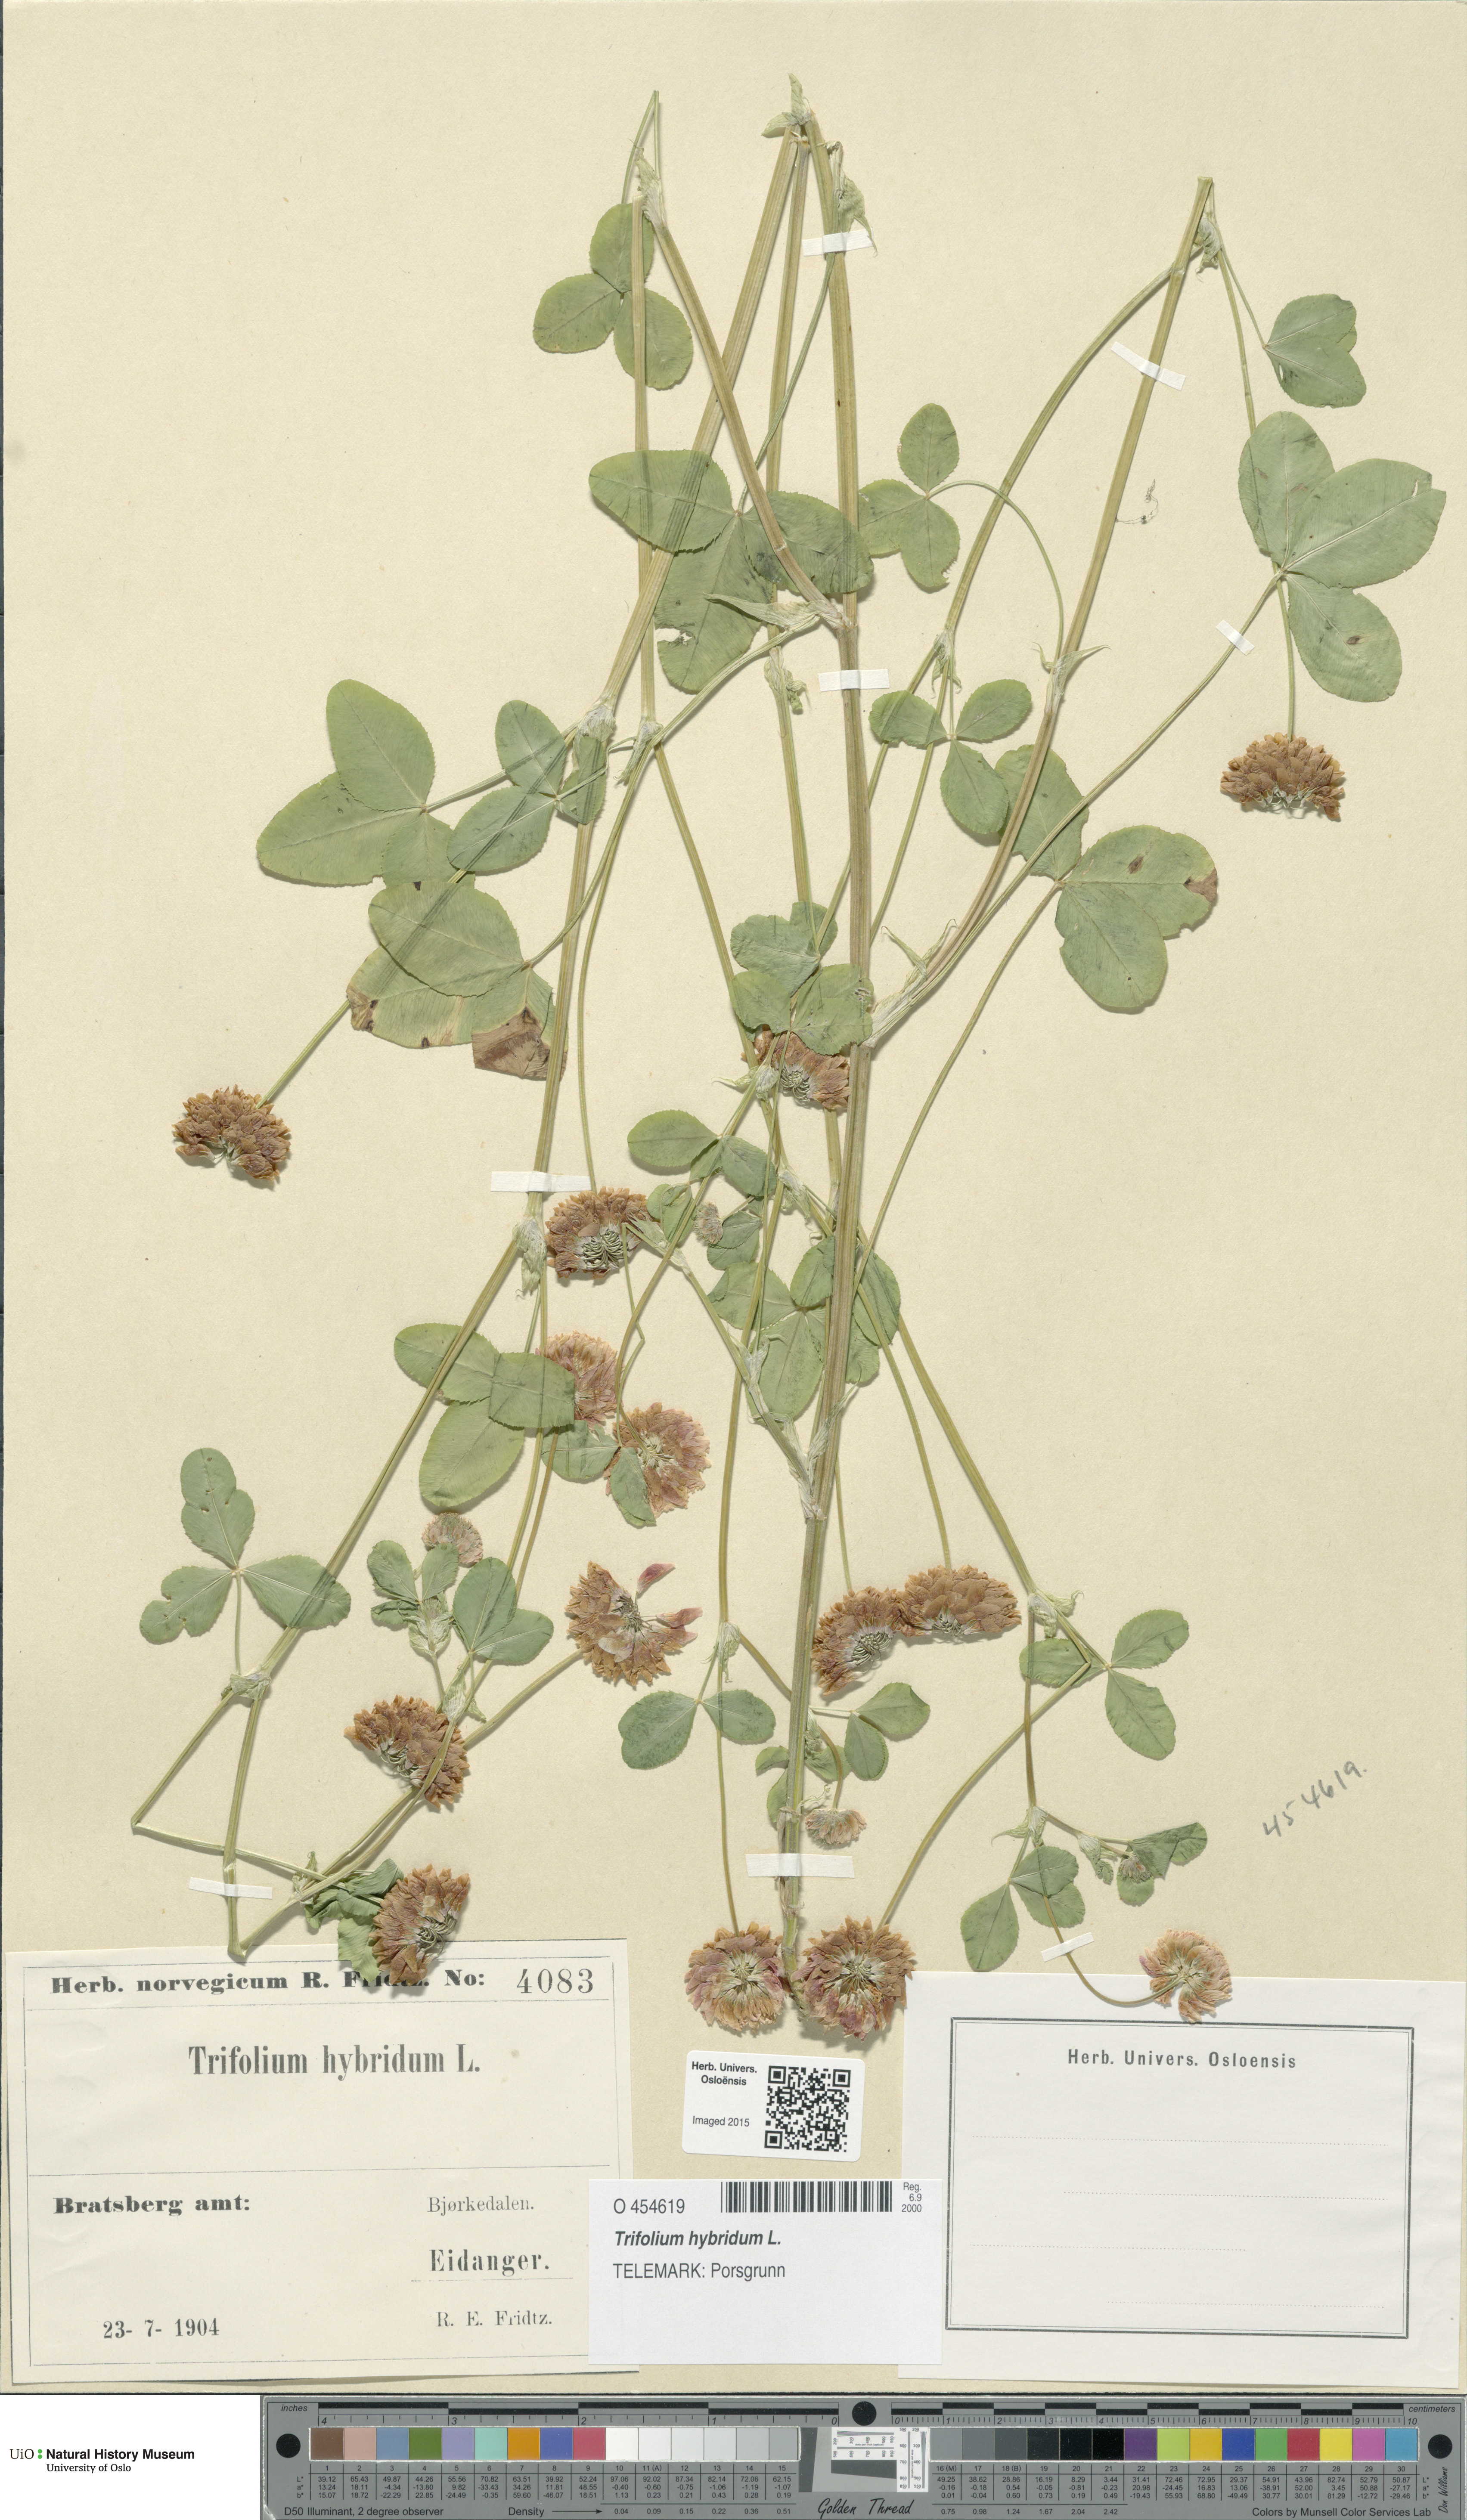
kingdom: Plantae
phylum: Tracheophyta
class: Magnoliopsida
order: Fabales
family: Fabaceae
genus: Trifolium
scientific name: Trifolium hybridum
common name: Alsike clover
